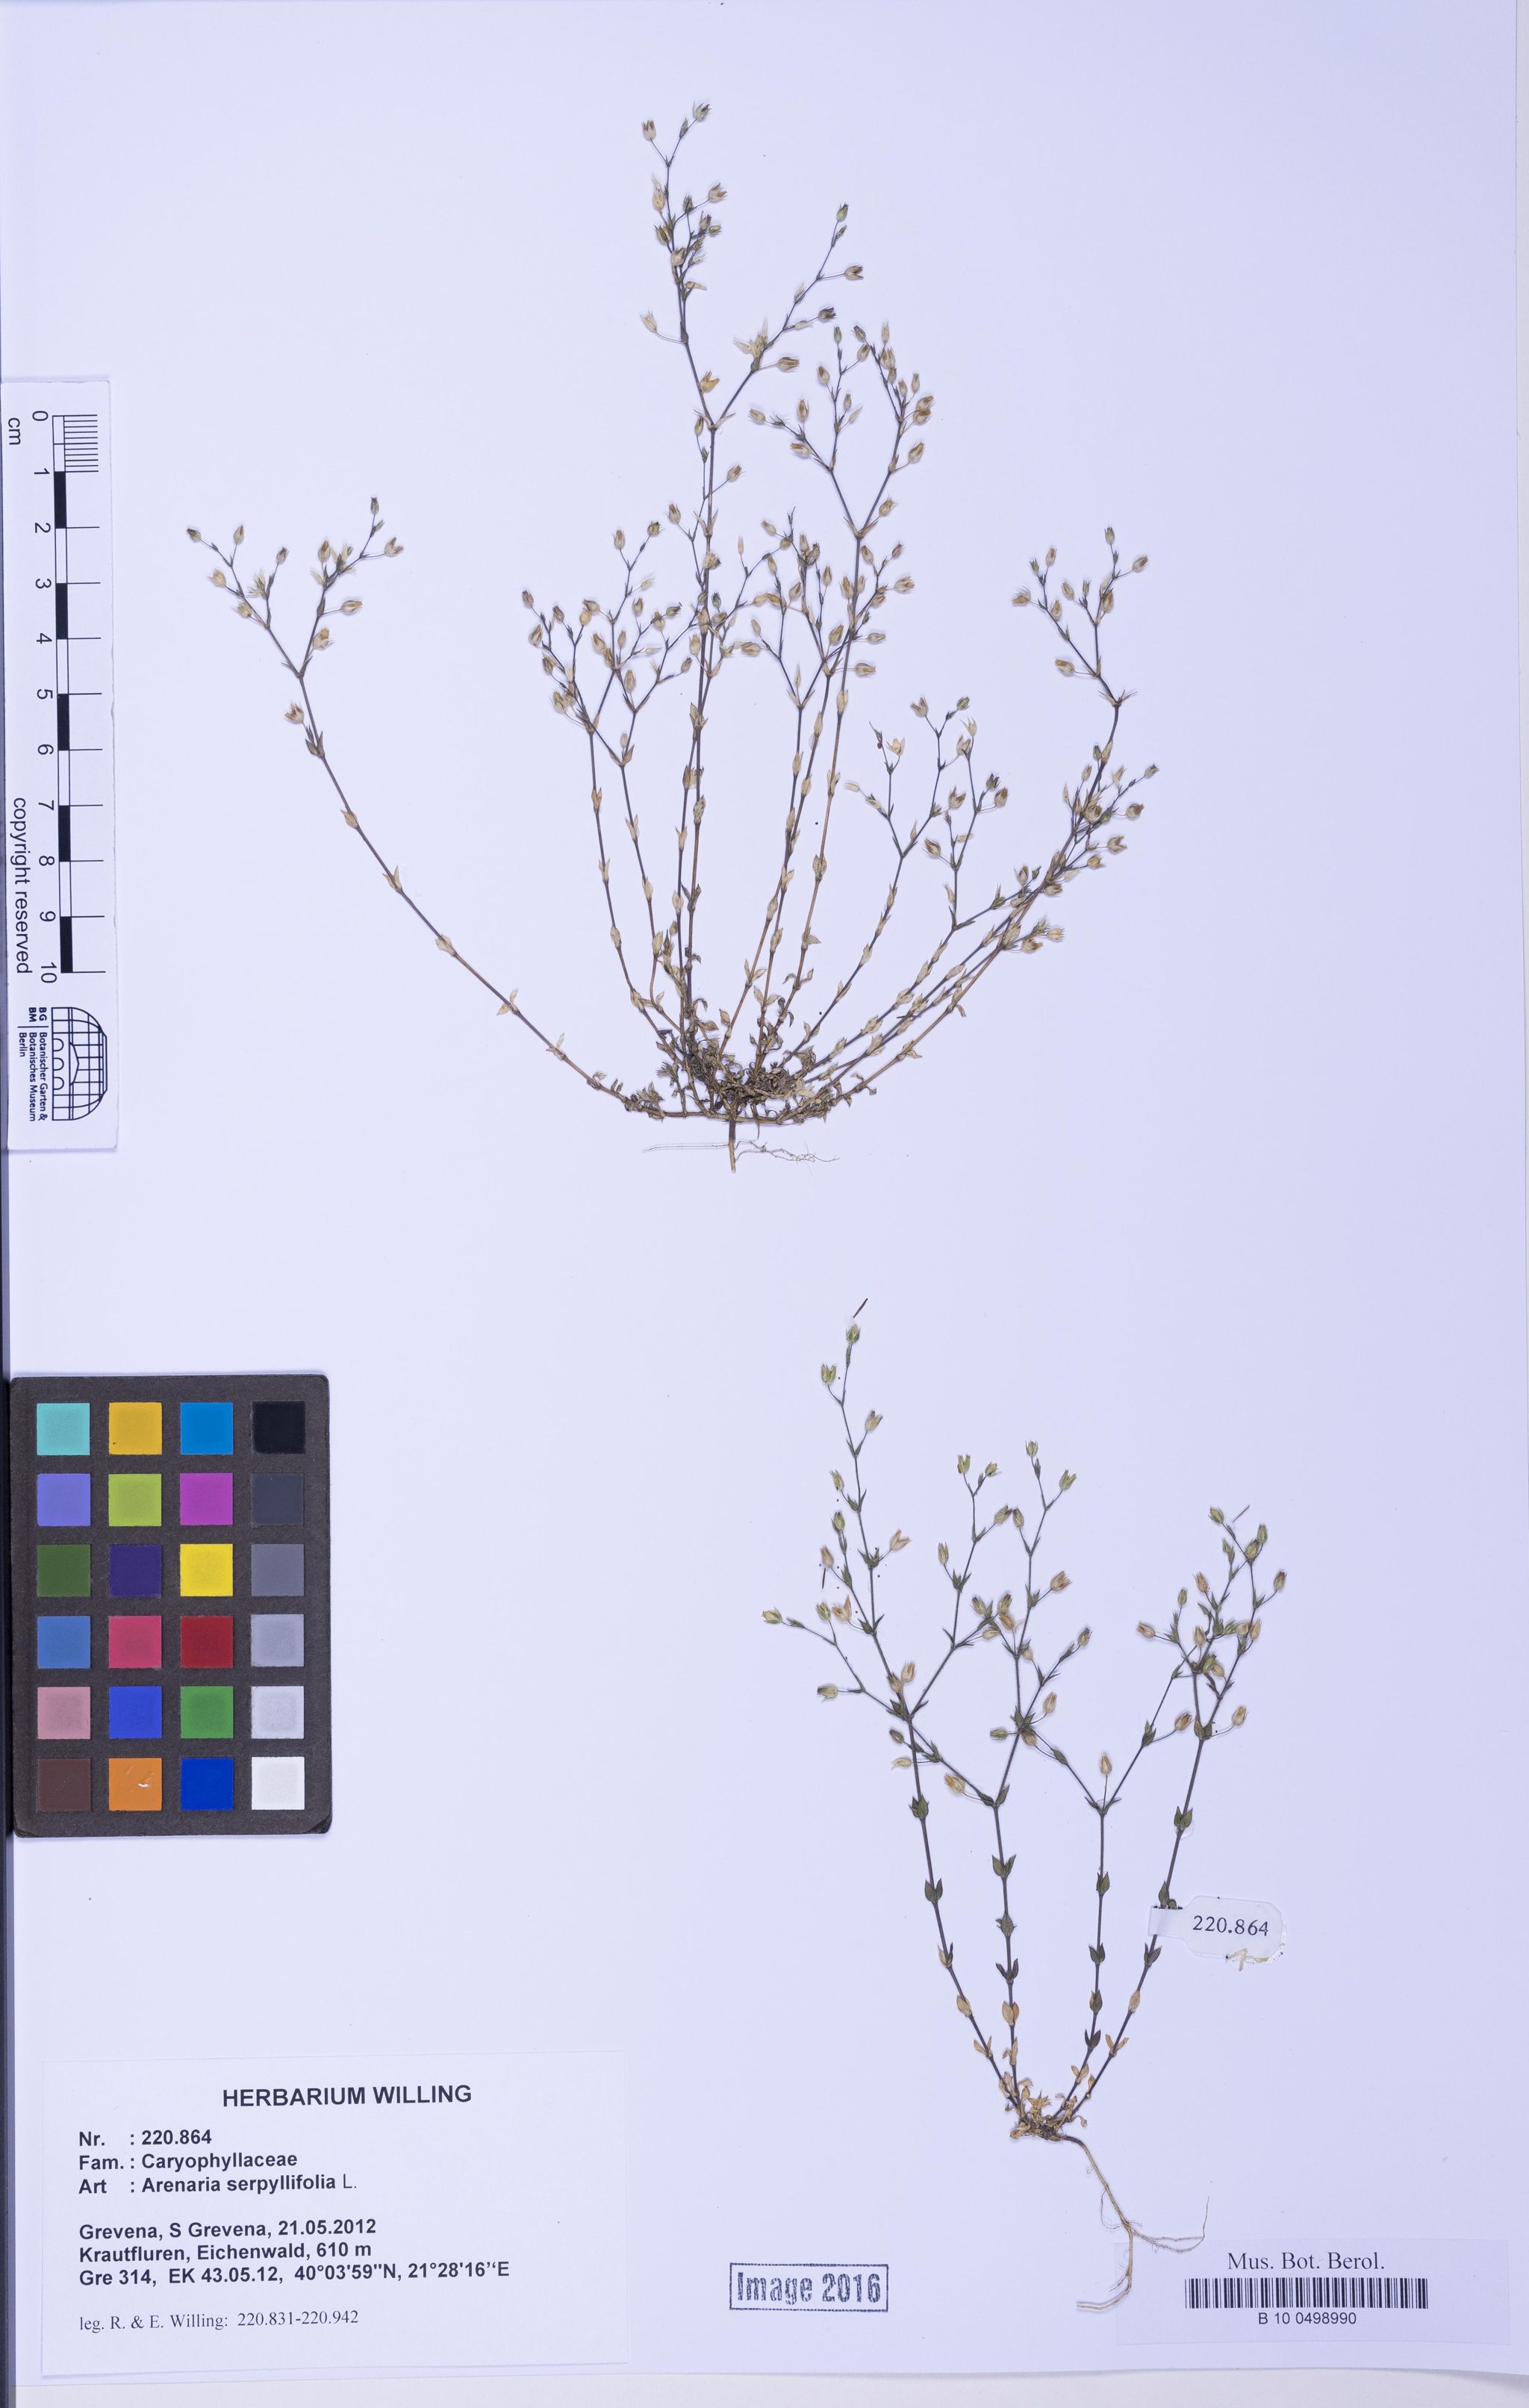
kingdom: Plantae
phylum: Tracheophyta
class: Magnoliopsida
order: Caryophyllales
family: Caryophyllaceae
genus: Arenaria
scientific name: Arenaria serpyllifolia
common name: Thyme-leaved sandwort
